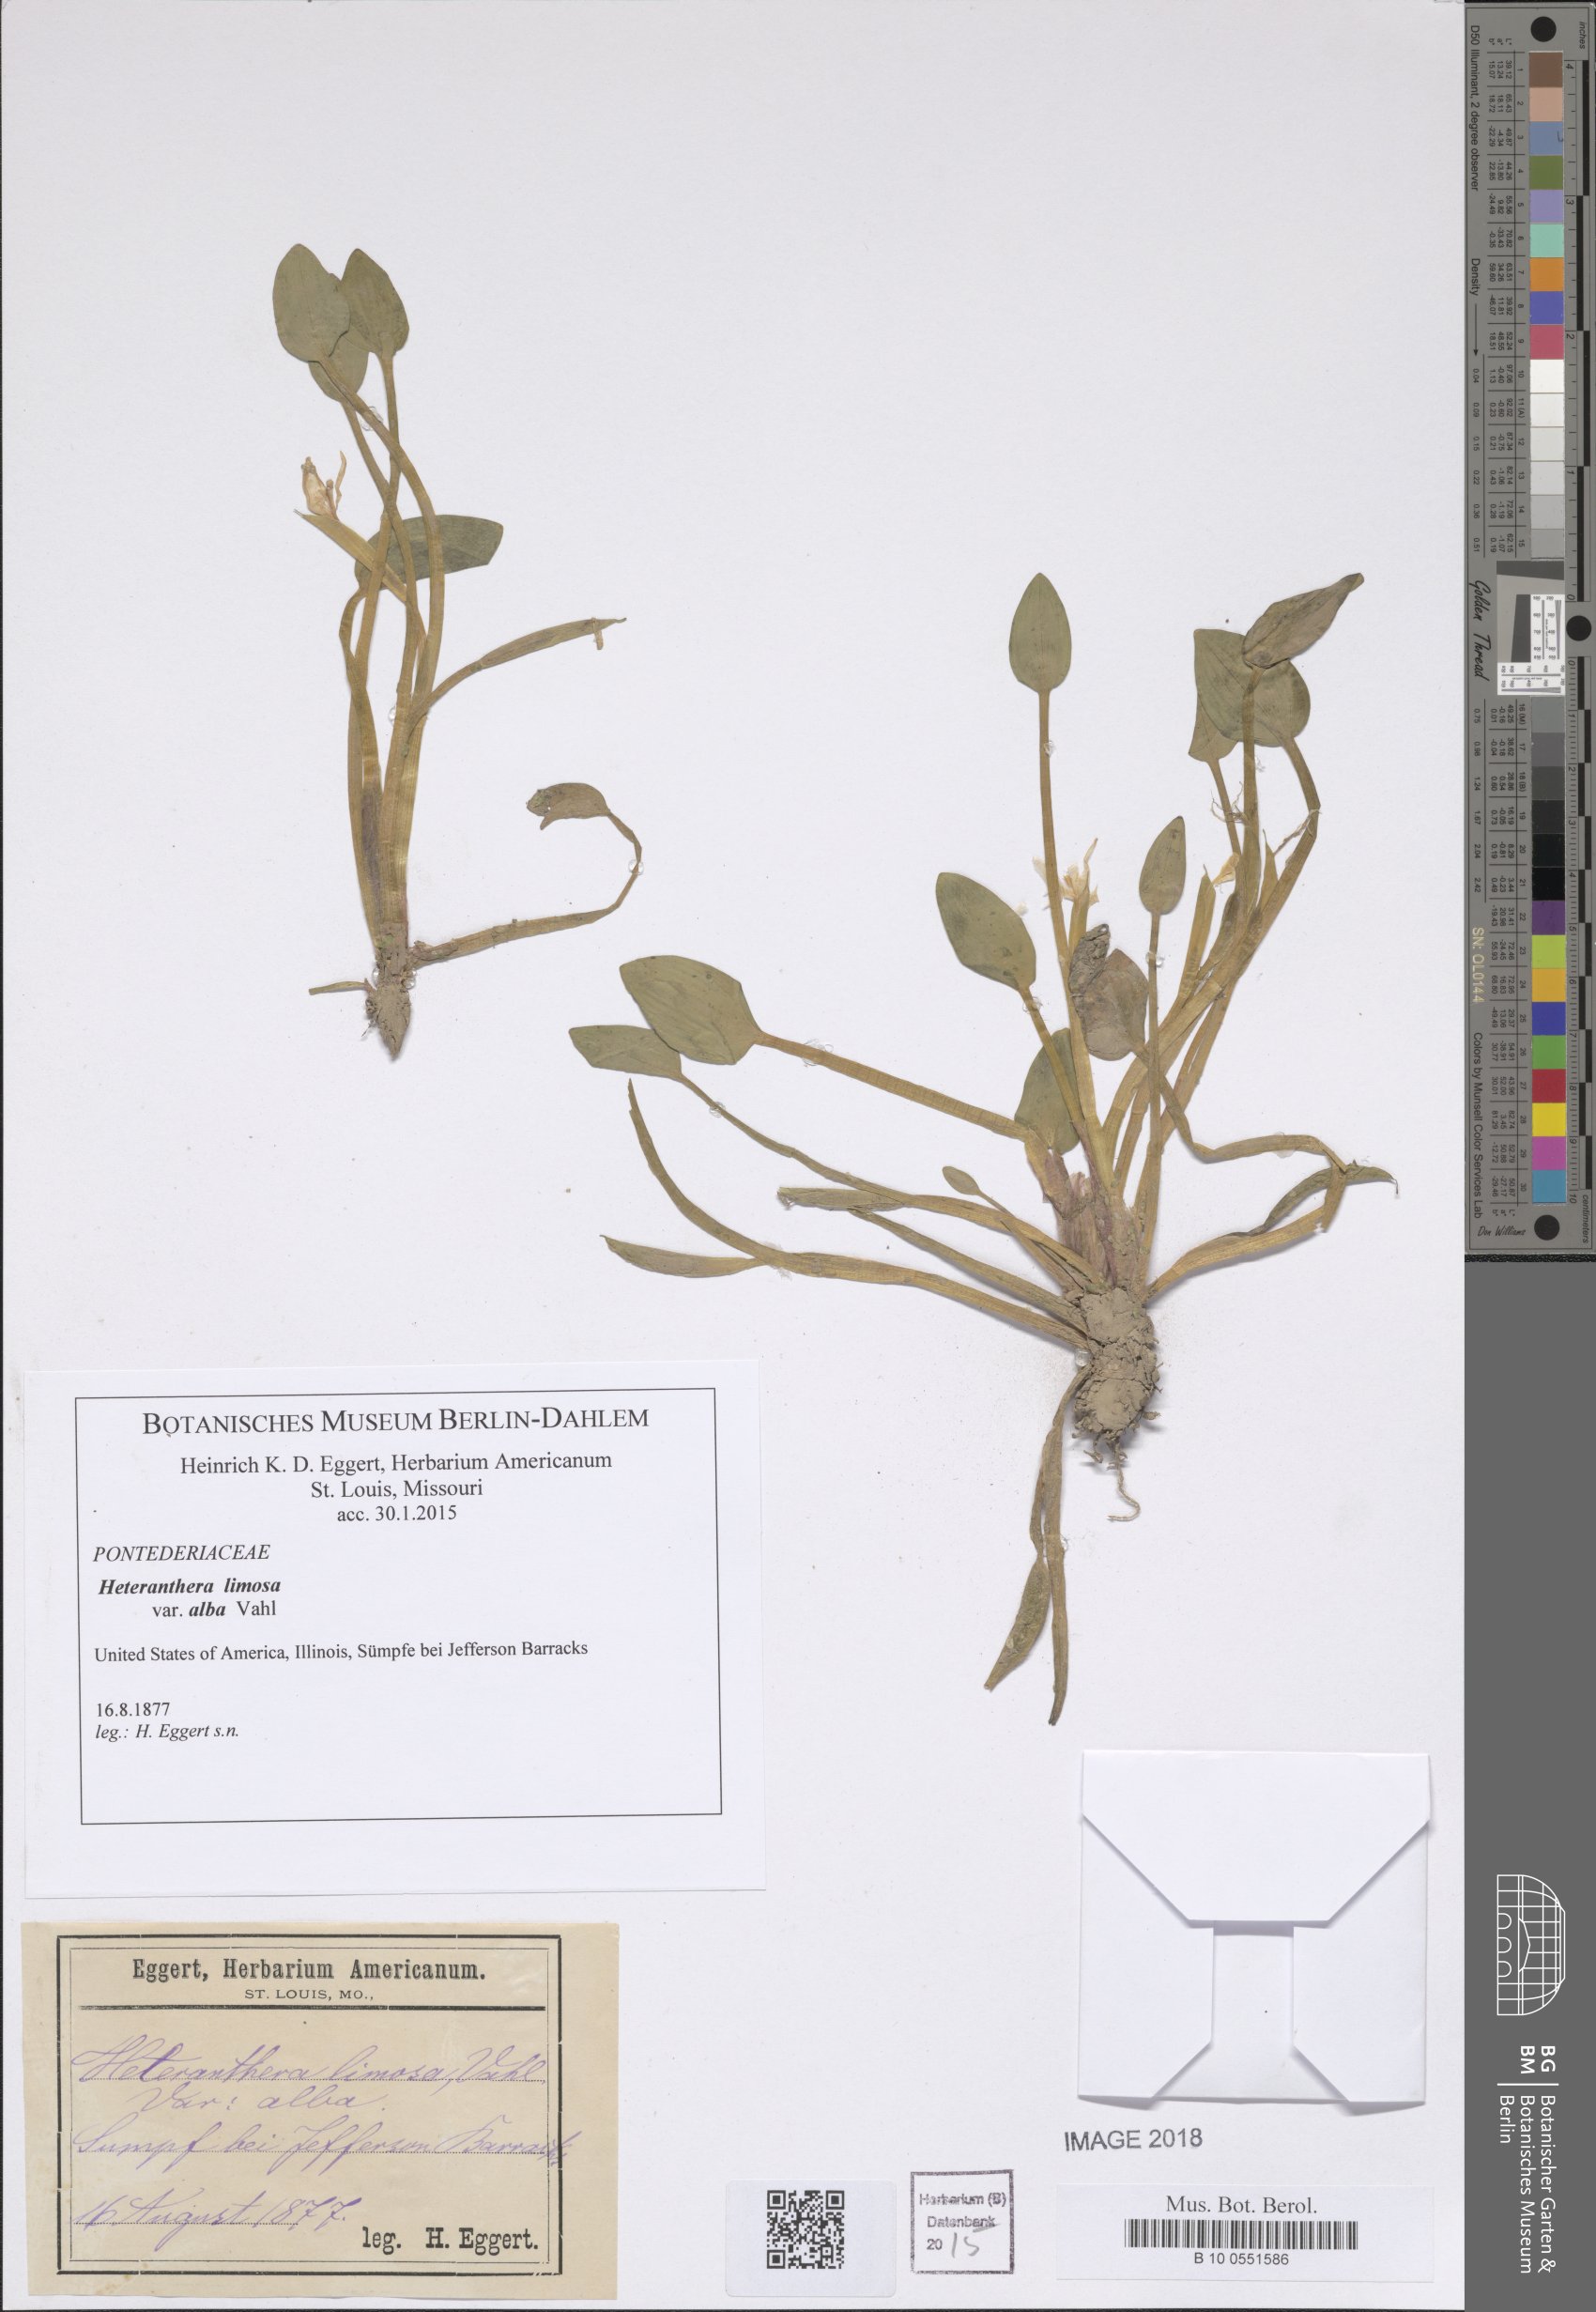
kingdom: Plantae
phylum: Tracheophyta
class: Liliopsida
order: Commelinales
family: Pontederiaceae
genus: Heteranthera
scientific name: Heteranthera limosa
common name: Blue mud-plantain
